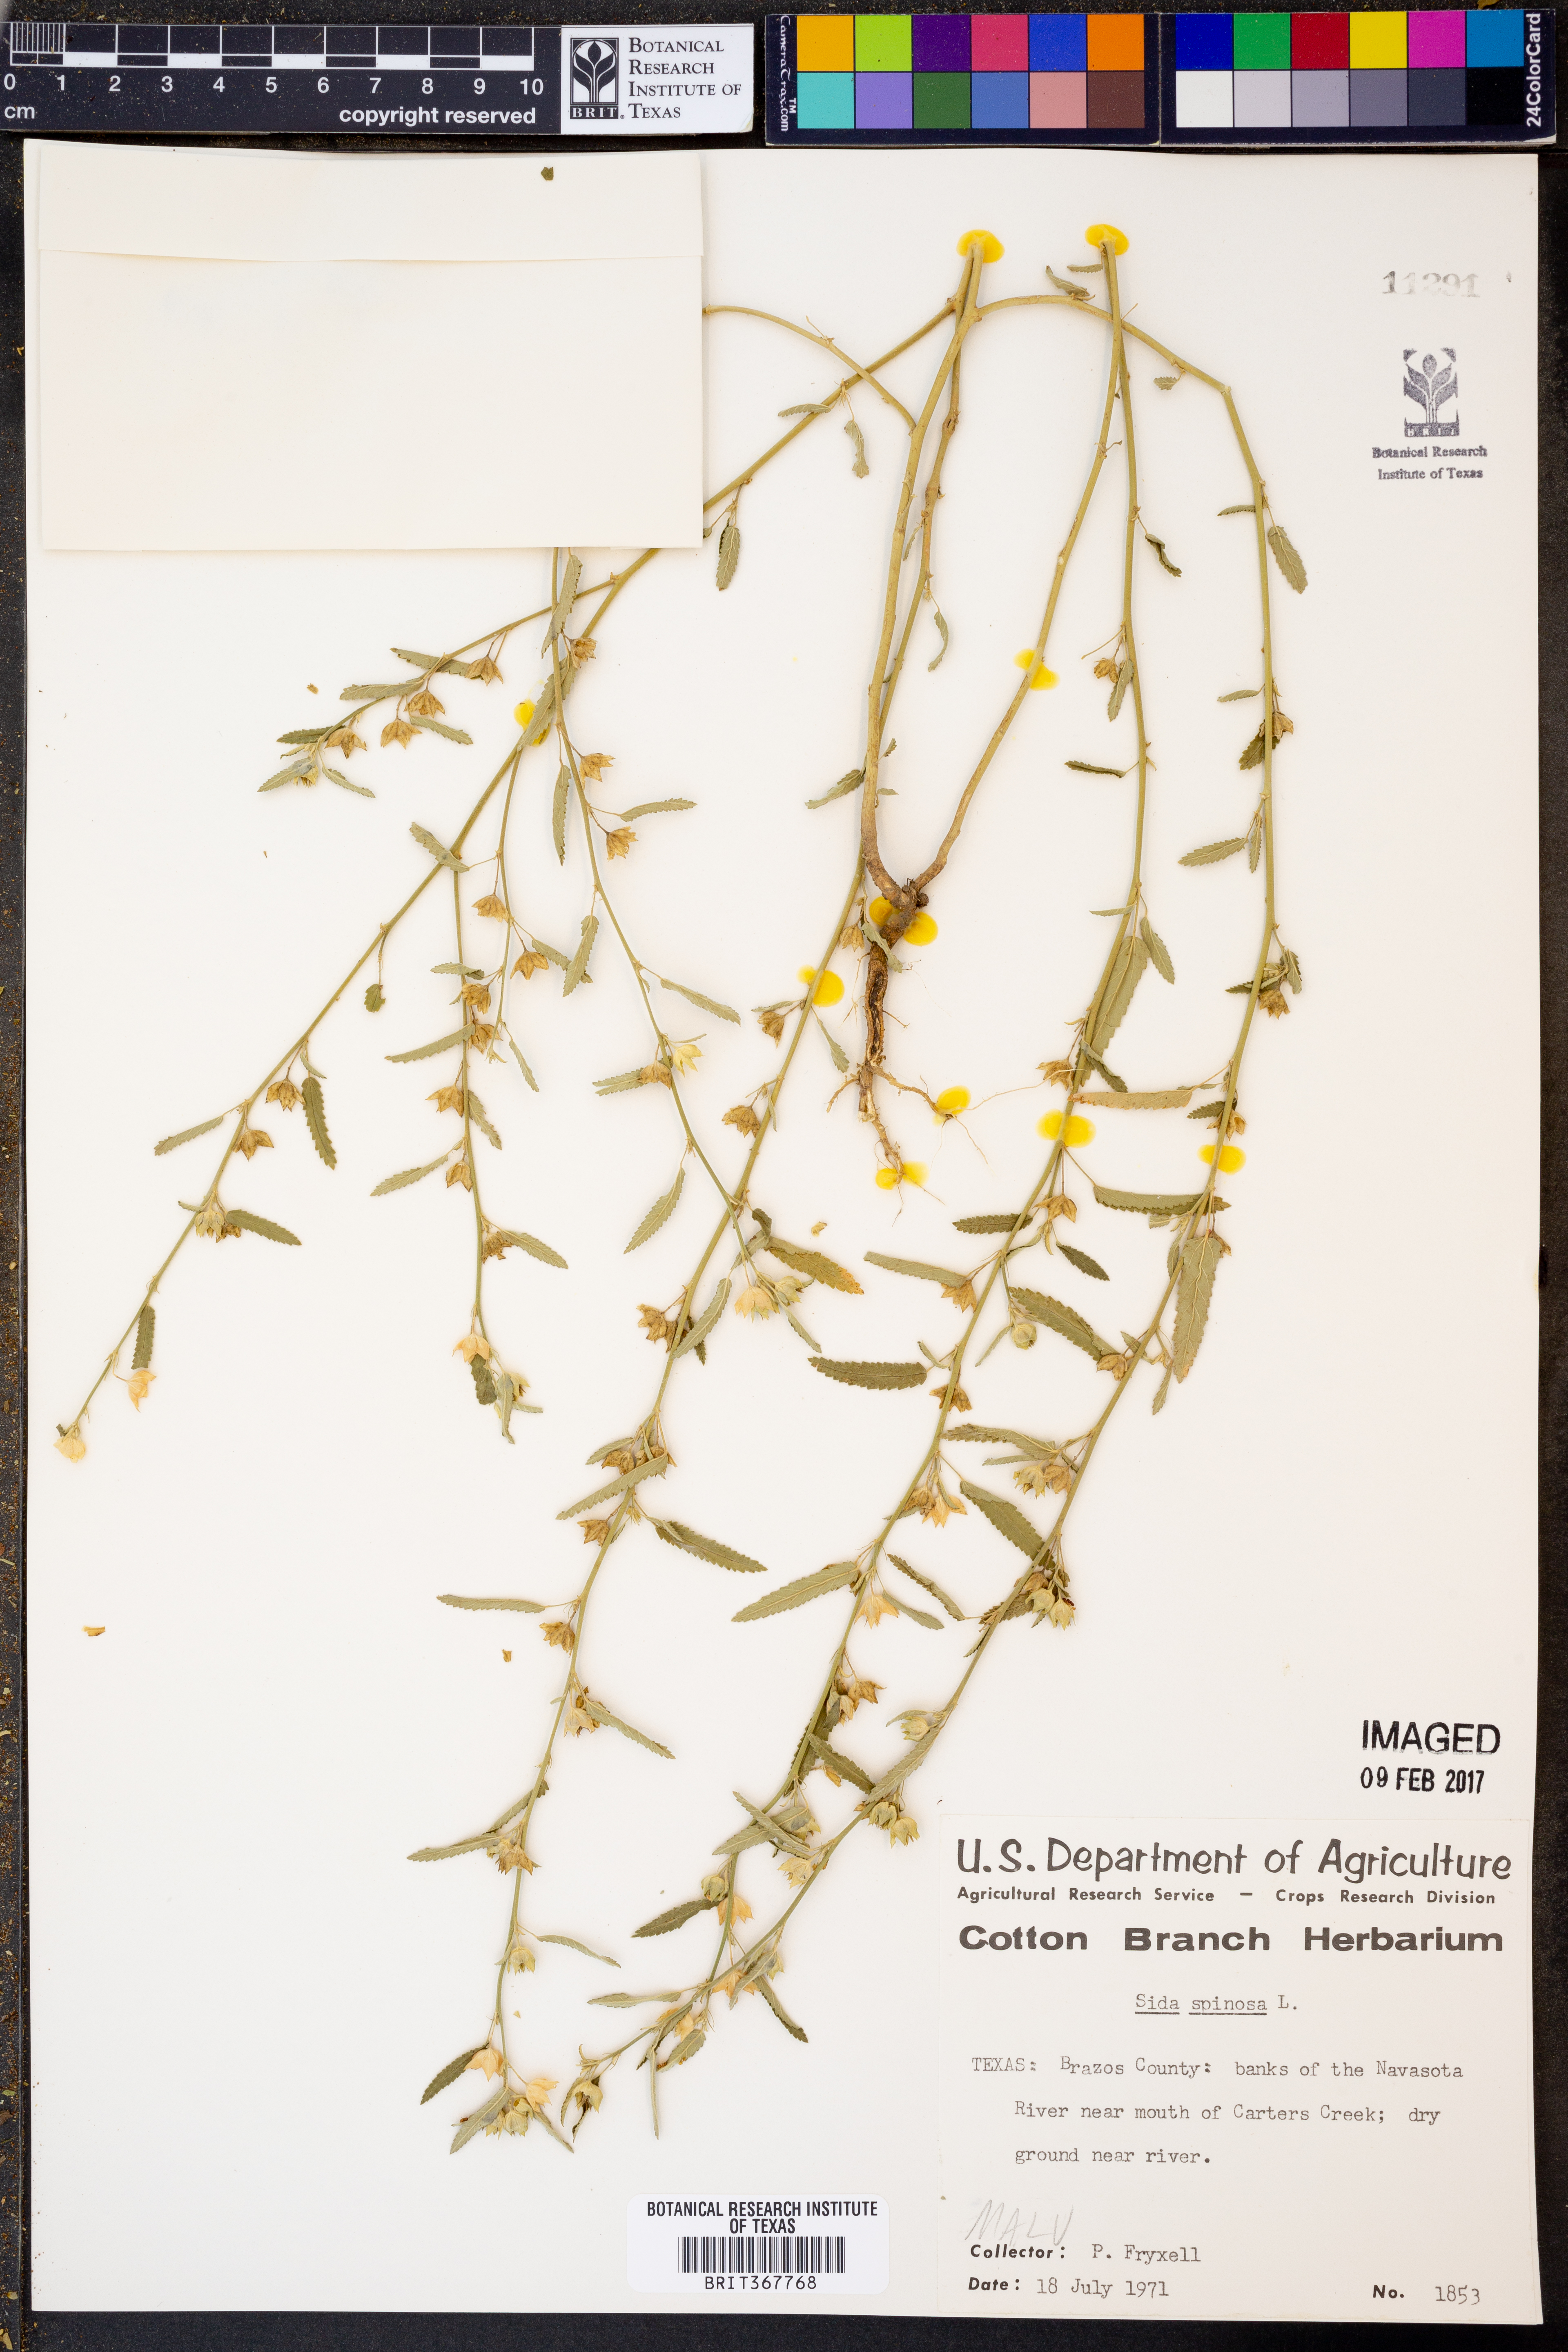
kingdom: Plantae
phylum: Tracheophyta
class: Magnoliopsida
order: Malvales
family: Malvaceae
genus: Sida
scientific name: Sida spinosa
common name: Prickly fanpetals
